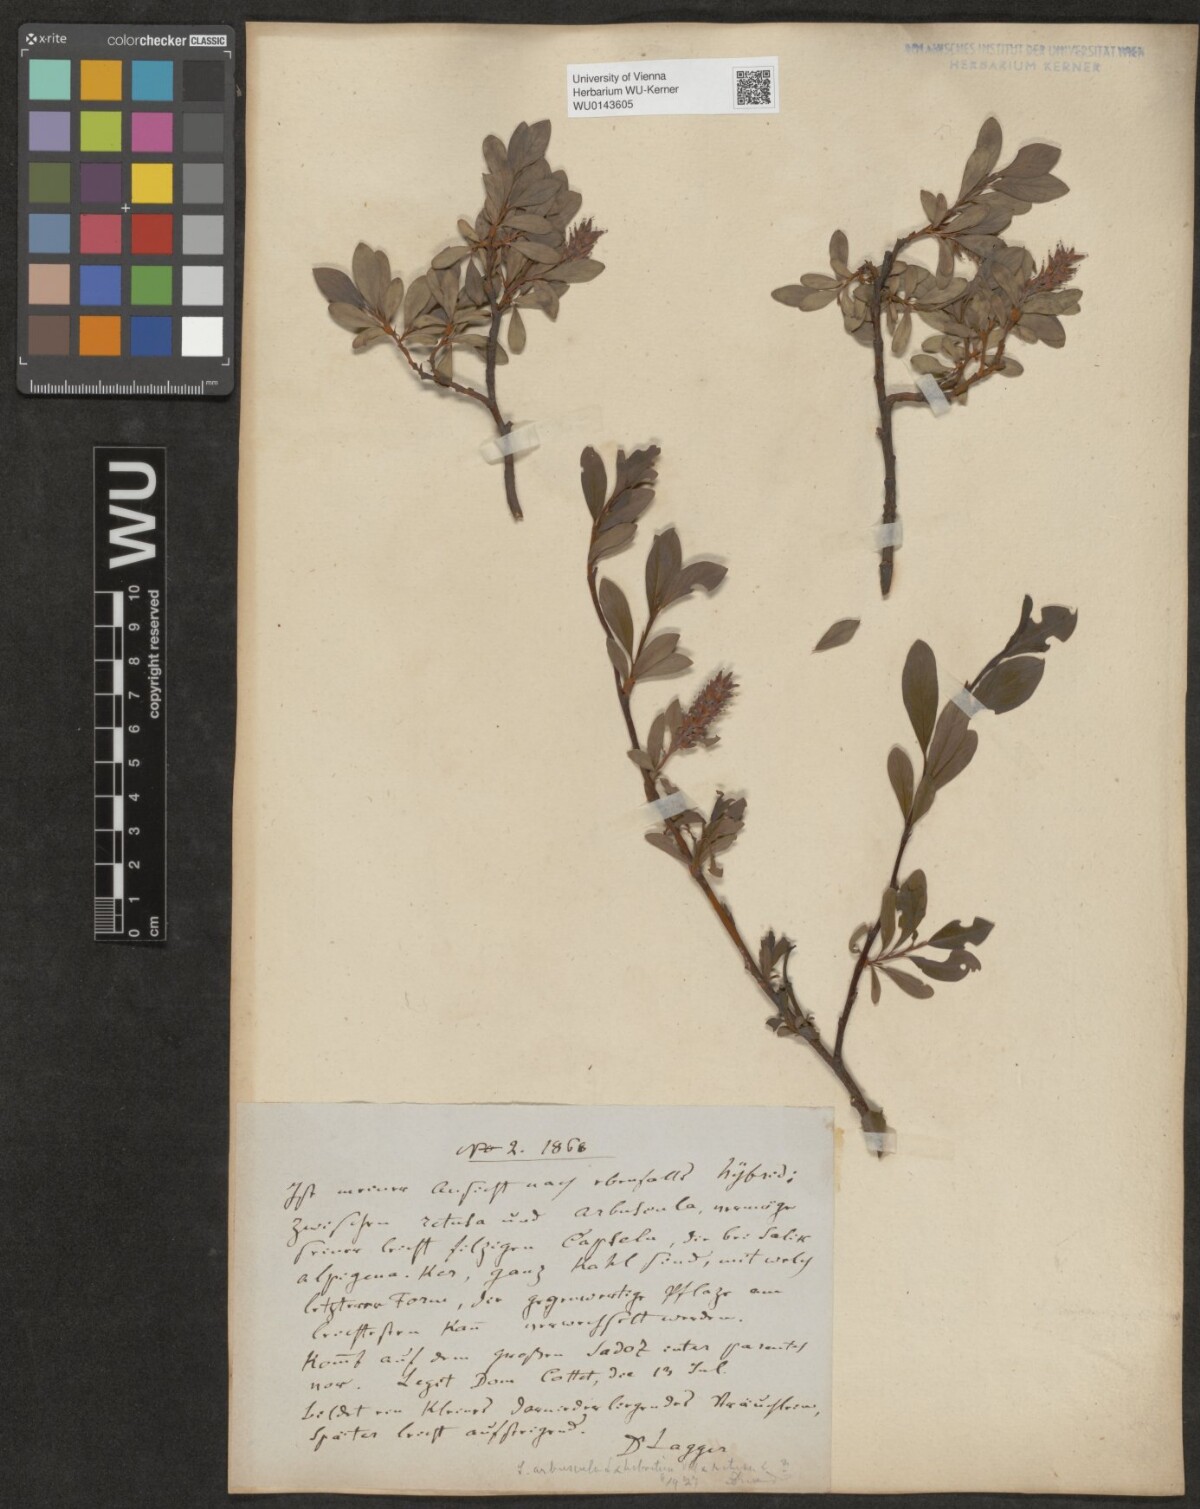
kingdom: Plantae
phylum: Tracheophyta
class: Magnoliopsida
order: Malpighiales
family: Salicaceae
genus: Salix
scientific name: Salix
